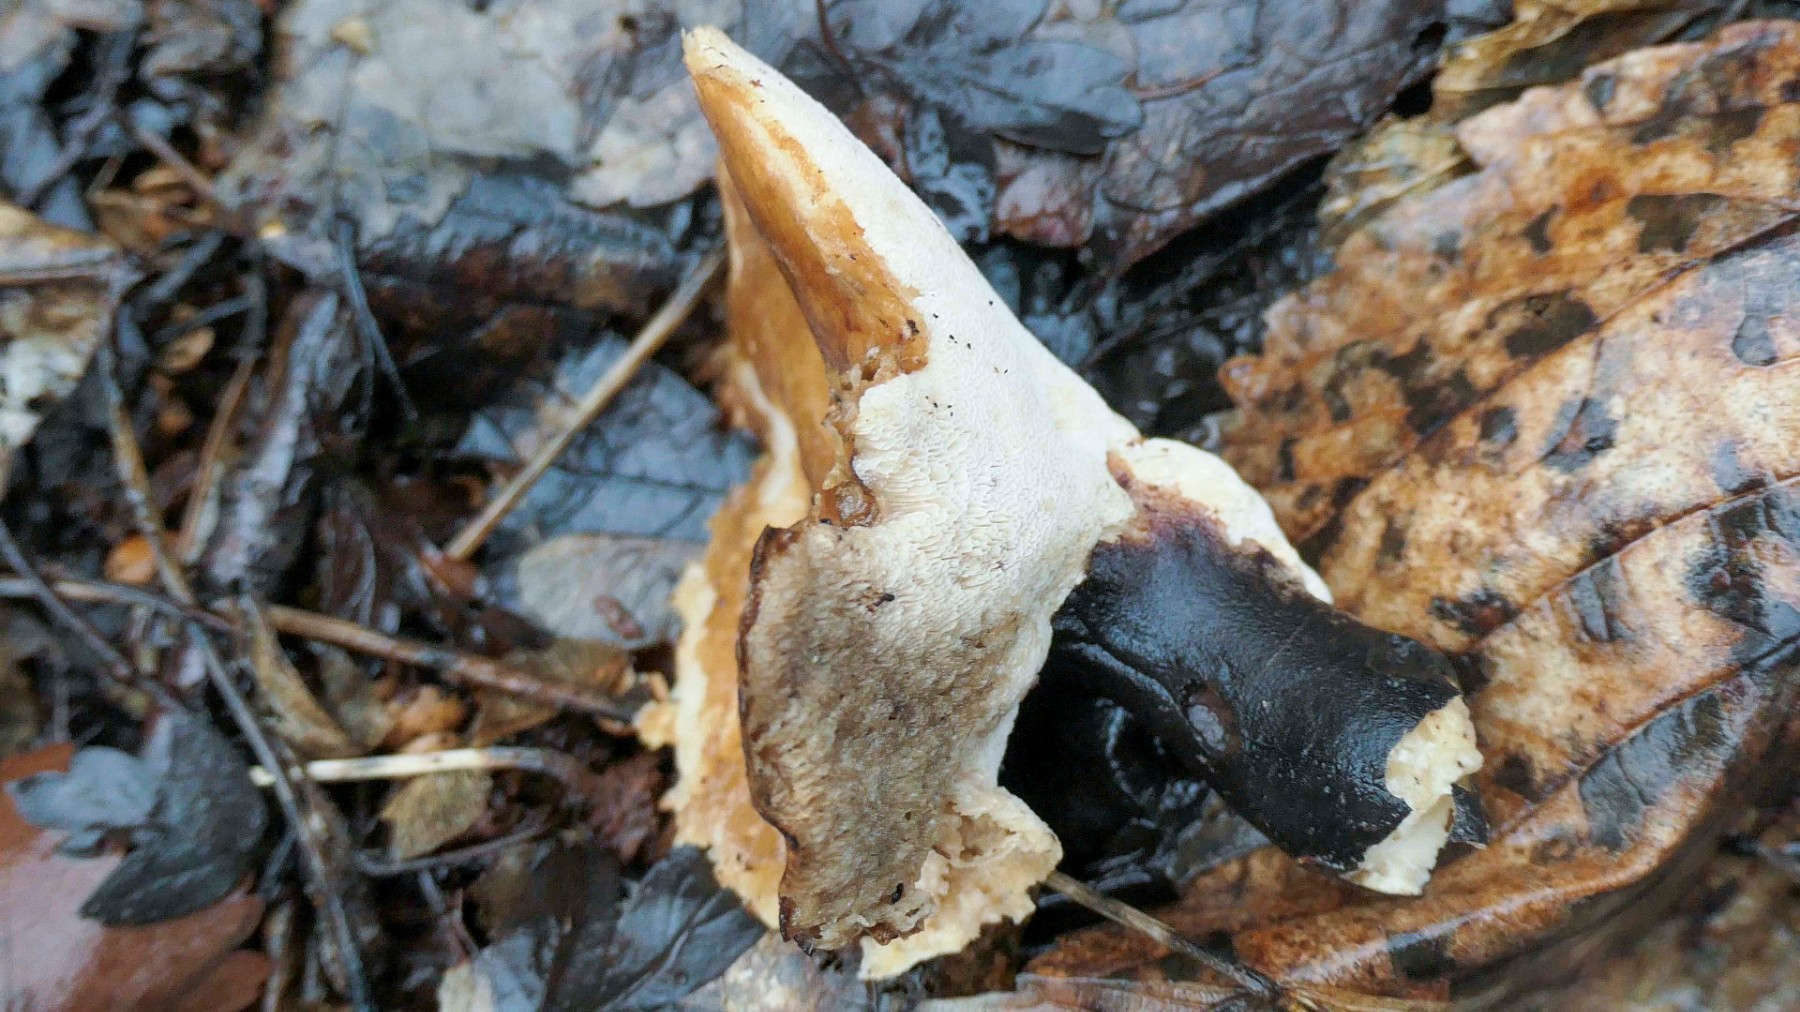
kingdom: Fungi
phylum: Basidiomycota
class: Agaricomycetes
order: Polyporales
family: Polyporaceae
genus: Picipes
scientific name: Picipes melanopus
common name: sortfodet stilkporesvamp
